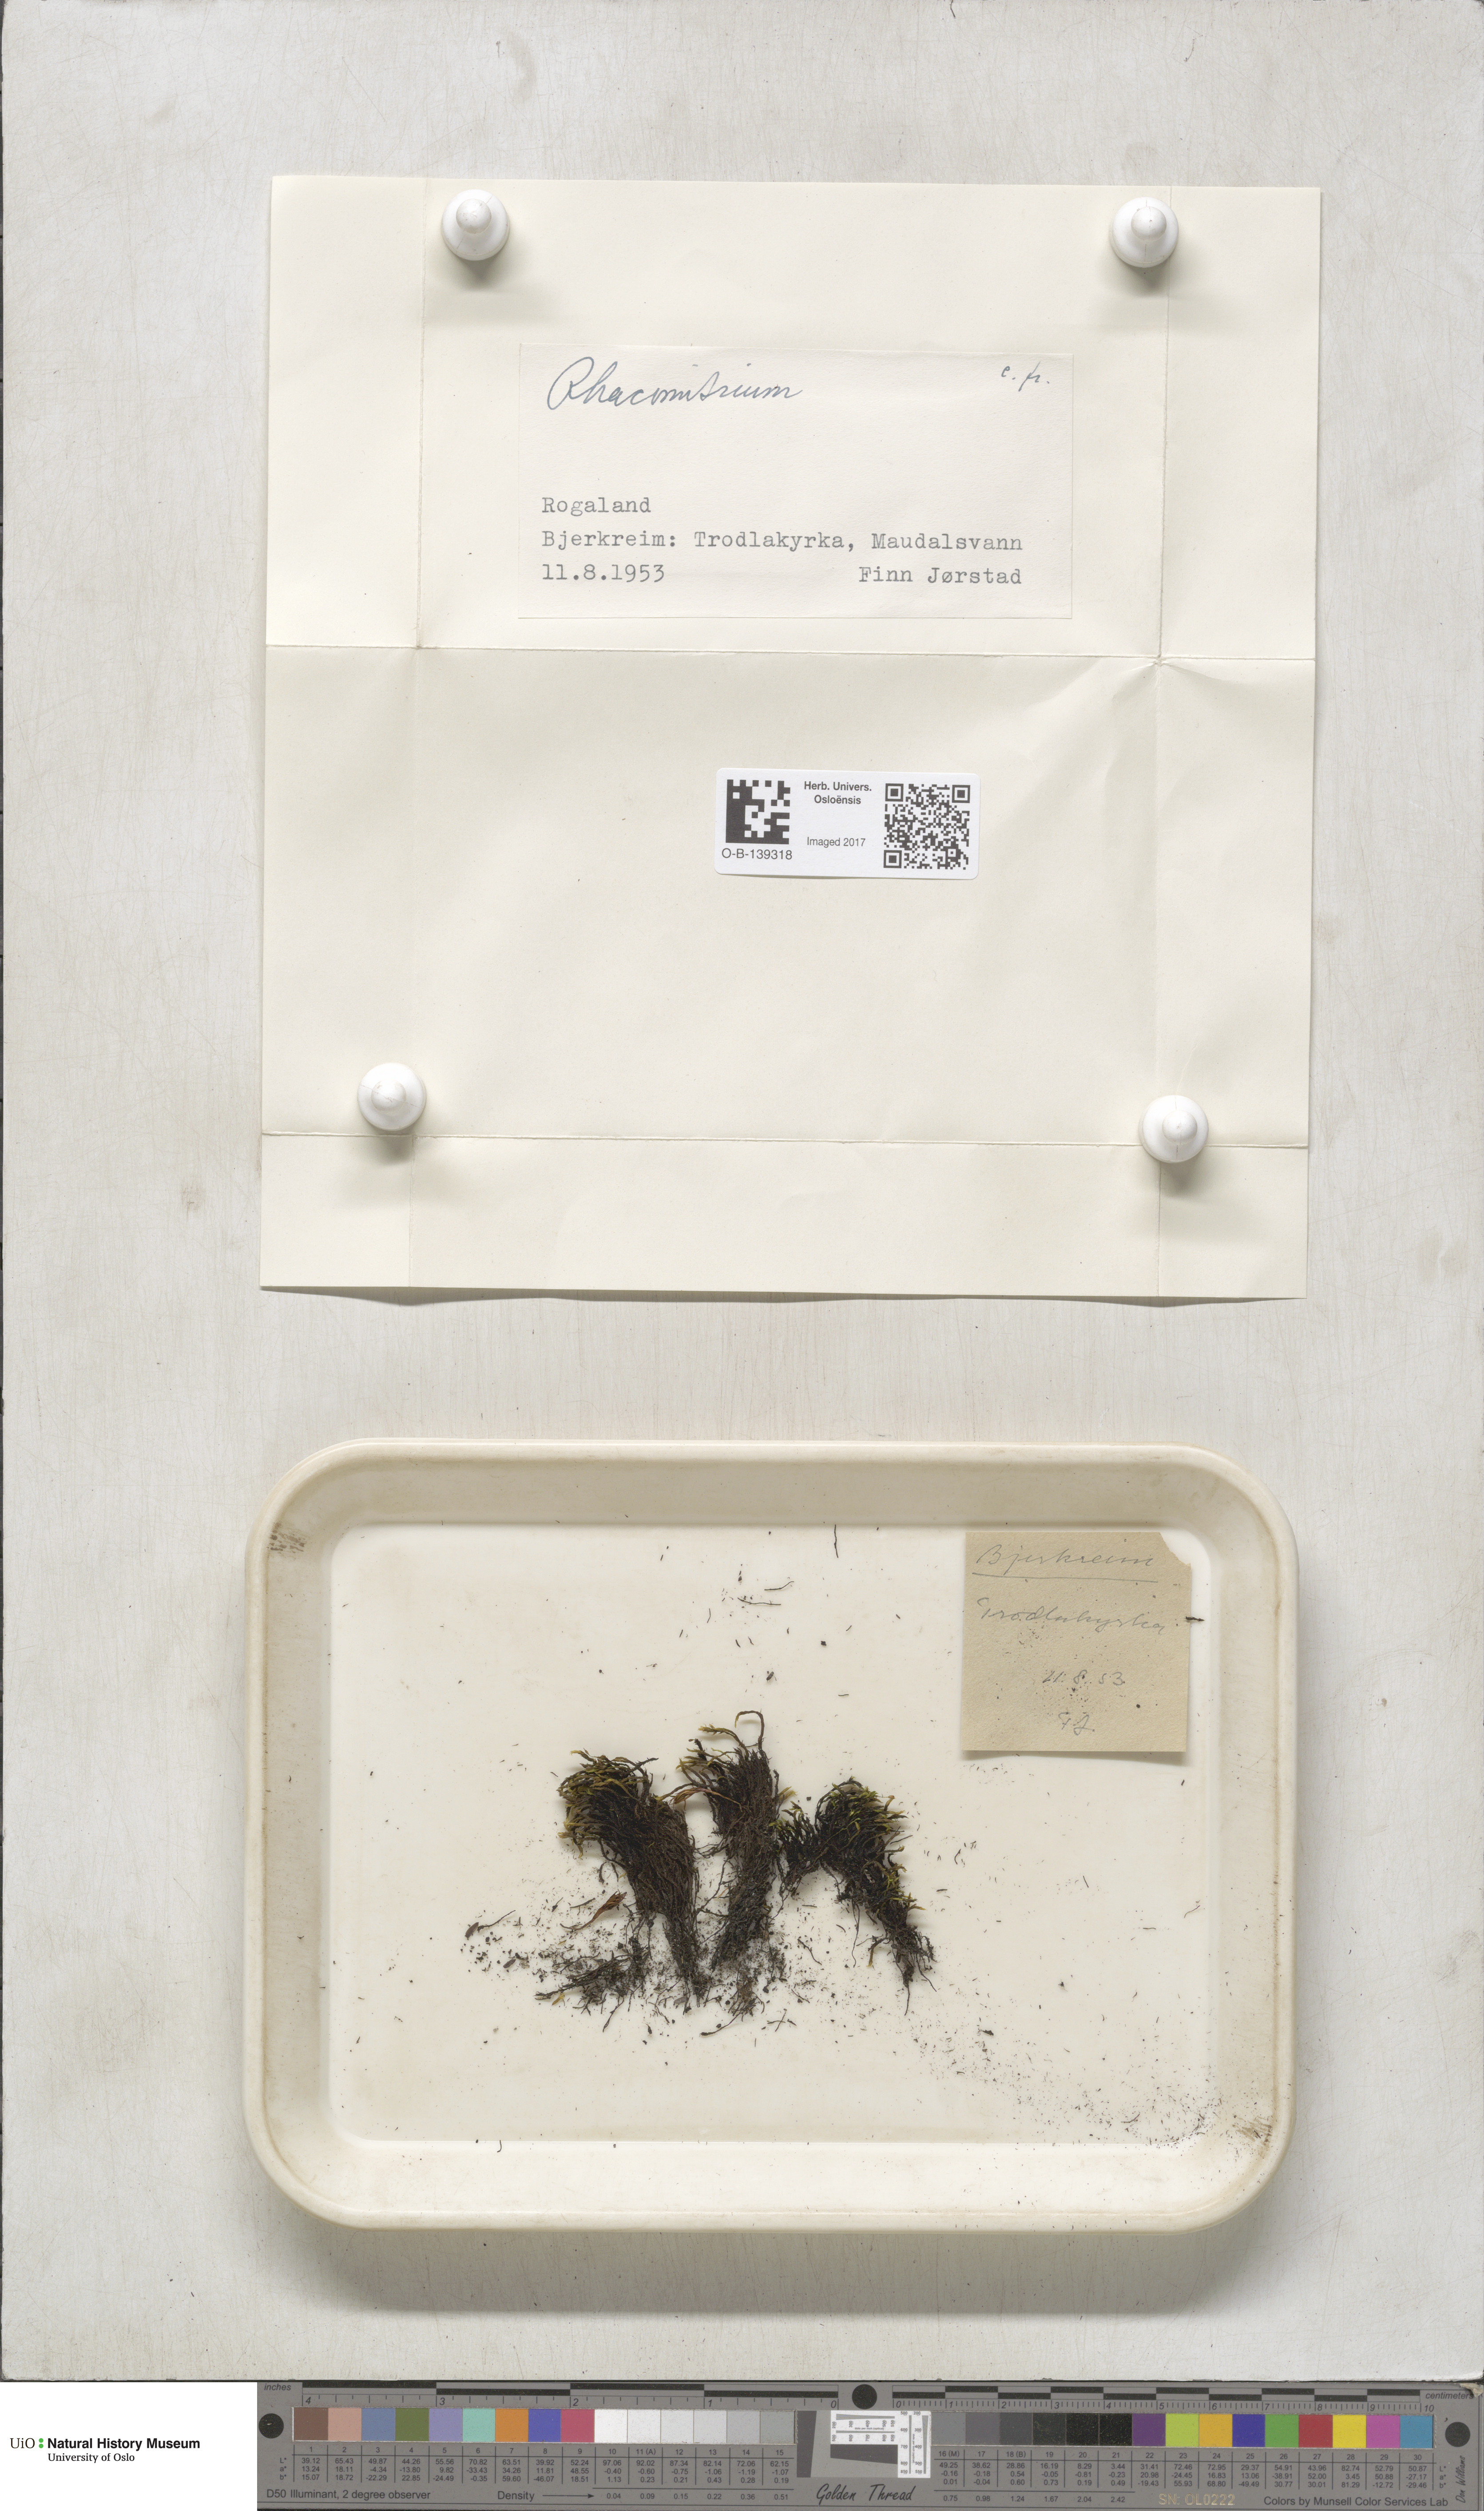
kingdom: Plantae
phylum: Bryophyta
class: Bryopsida
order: Grimmiales
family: Grimmiaceae
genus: Racomitrium
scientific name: Racomitrium
